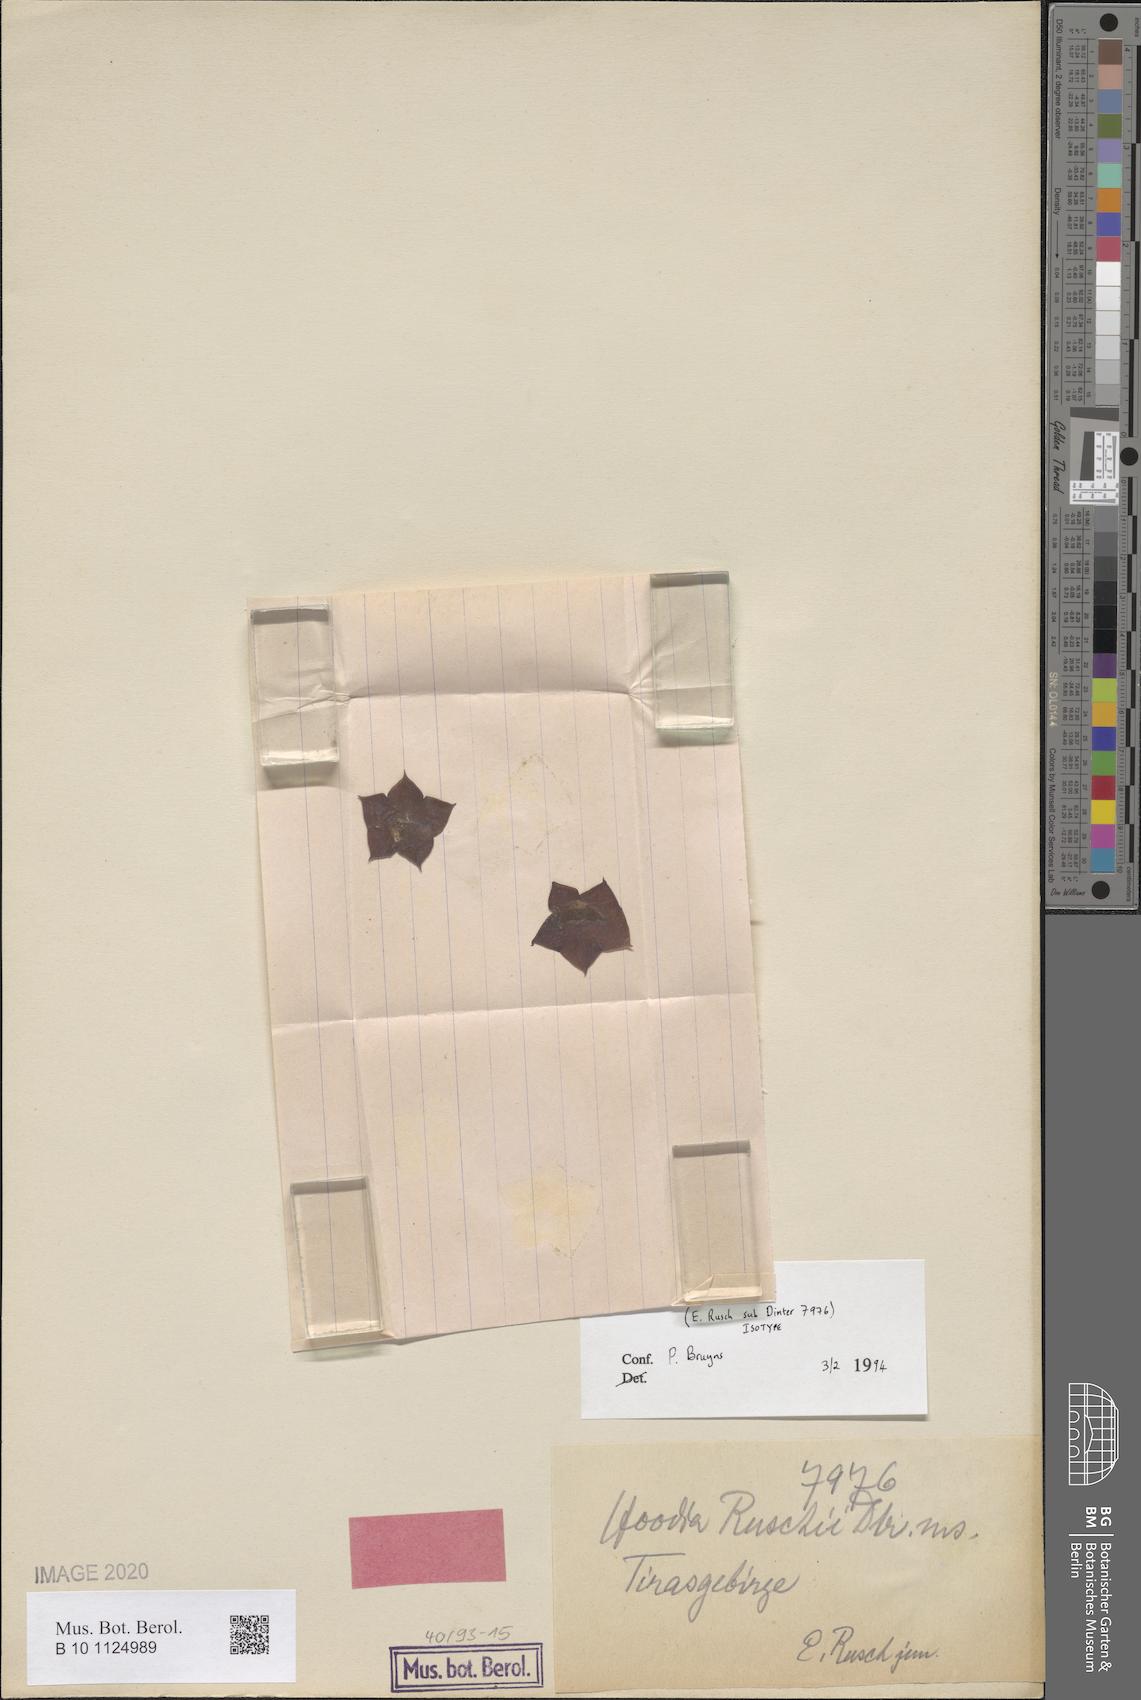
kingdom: Plantae
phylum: Tracheophyta
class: Magnoliopsida
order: Gentianales
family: Apocynaceae
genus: Ceropegia
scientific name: Ceropegia ruschii
